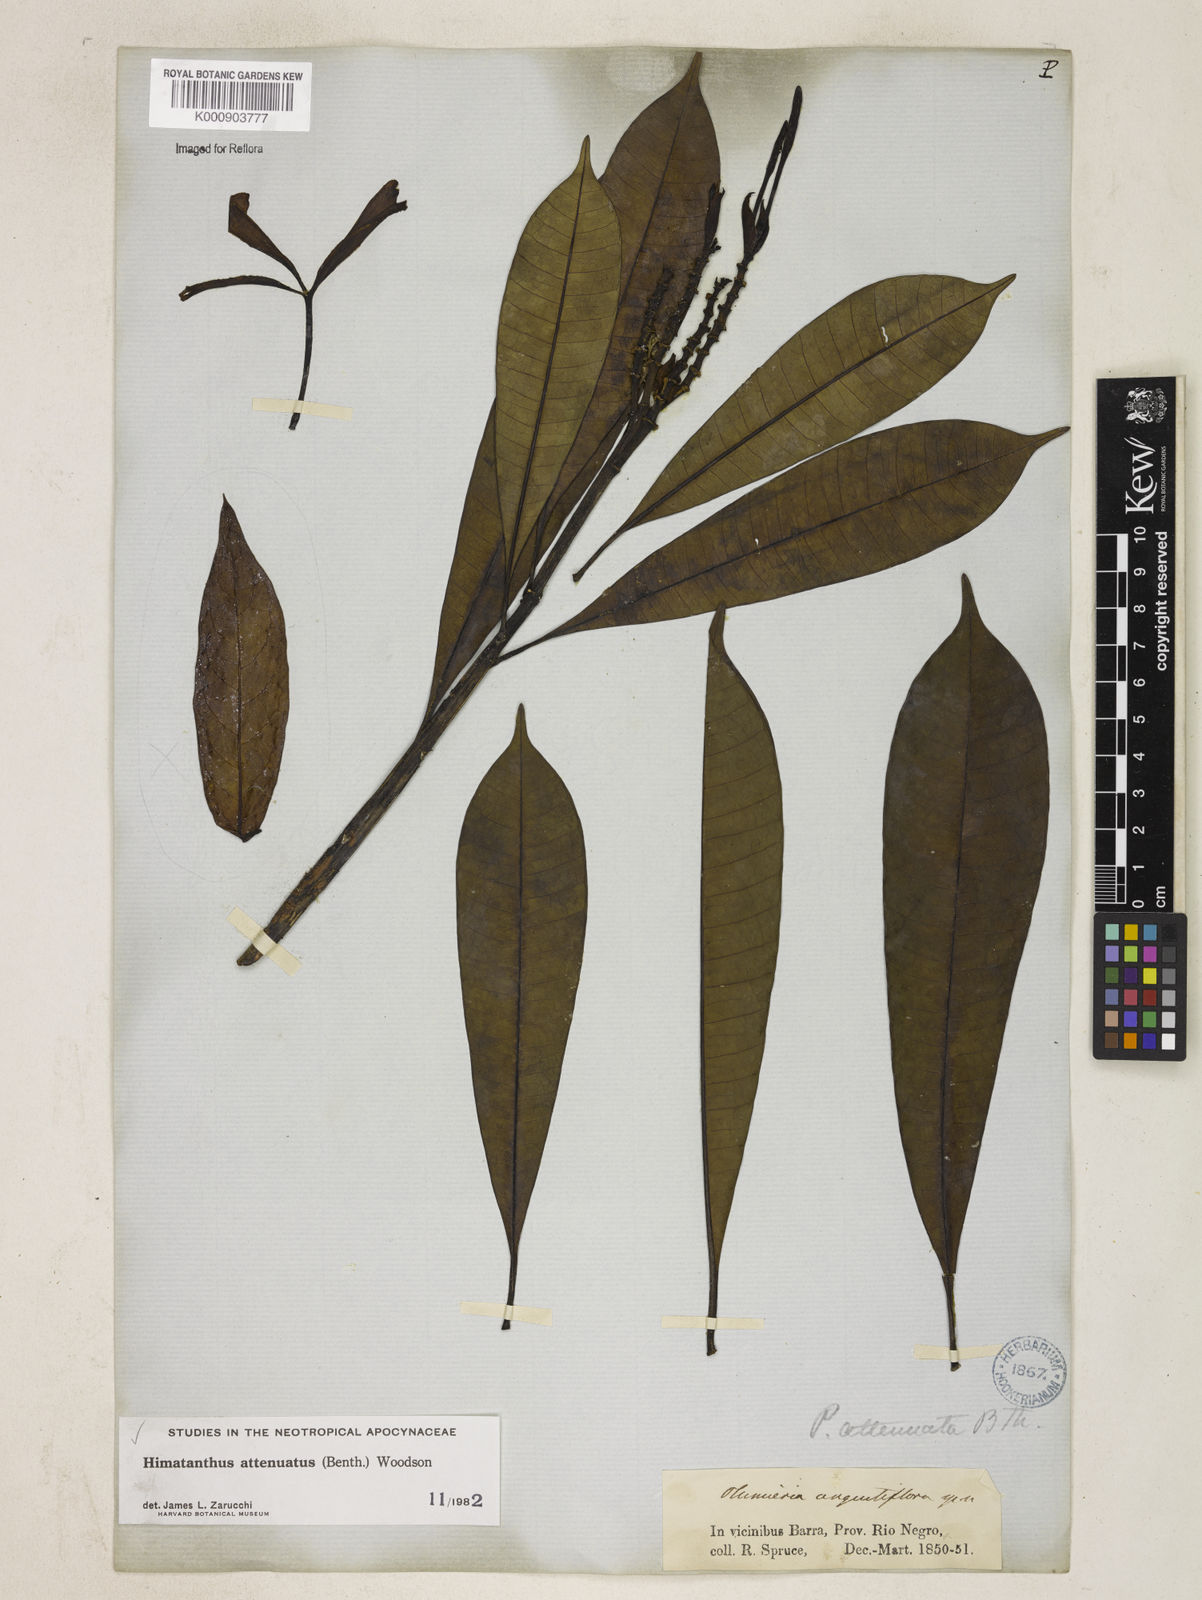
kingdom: Plantae
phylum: Tracheophyta
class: Magnoliopsida
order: Gentianales
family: Apocynaceae
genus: Himatanthus
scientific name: Himatanthus attenuatus
